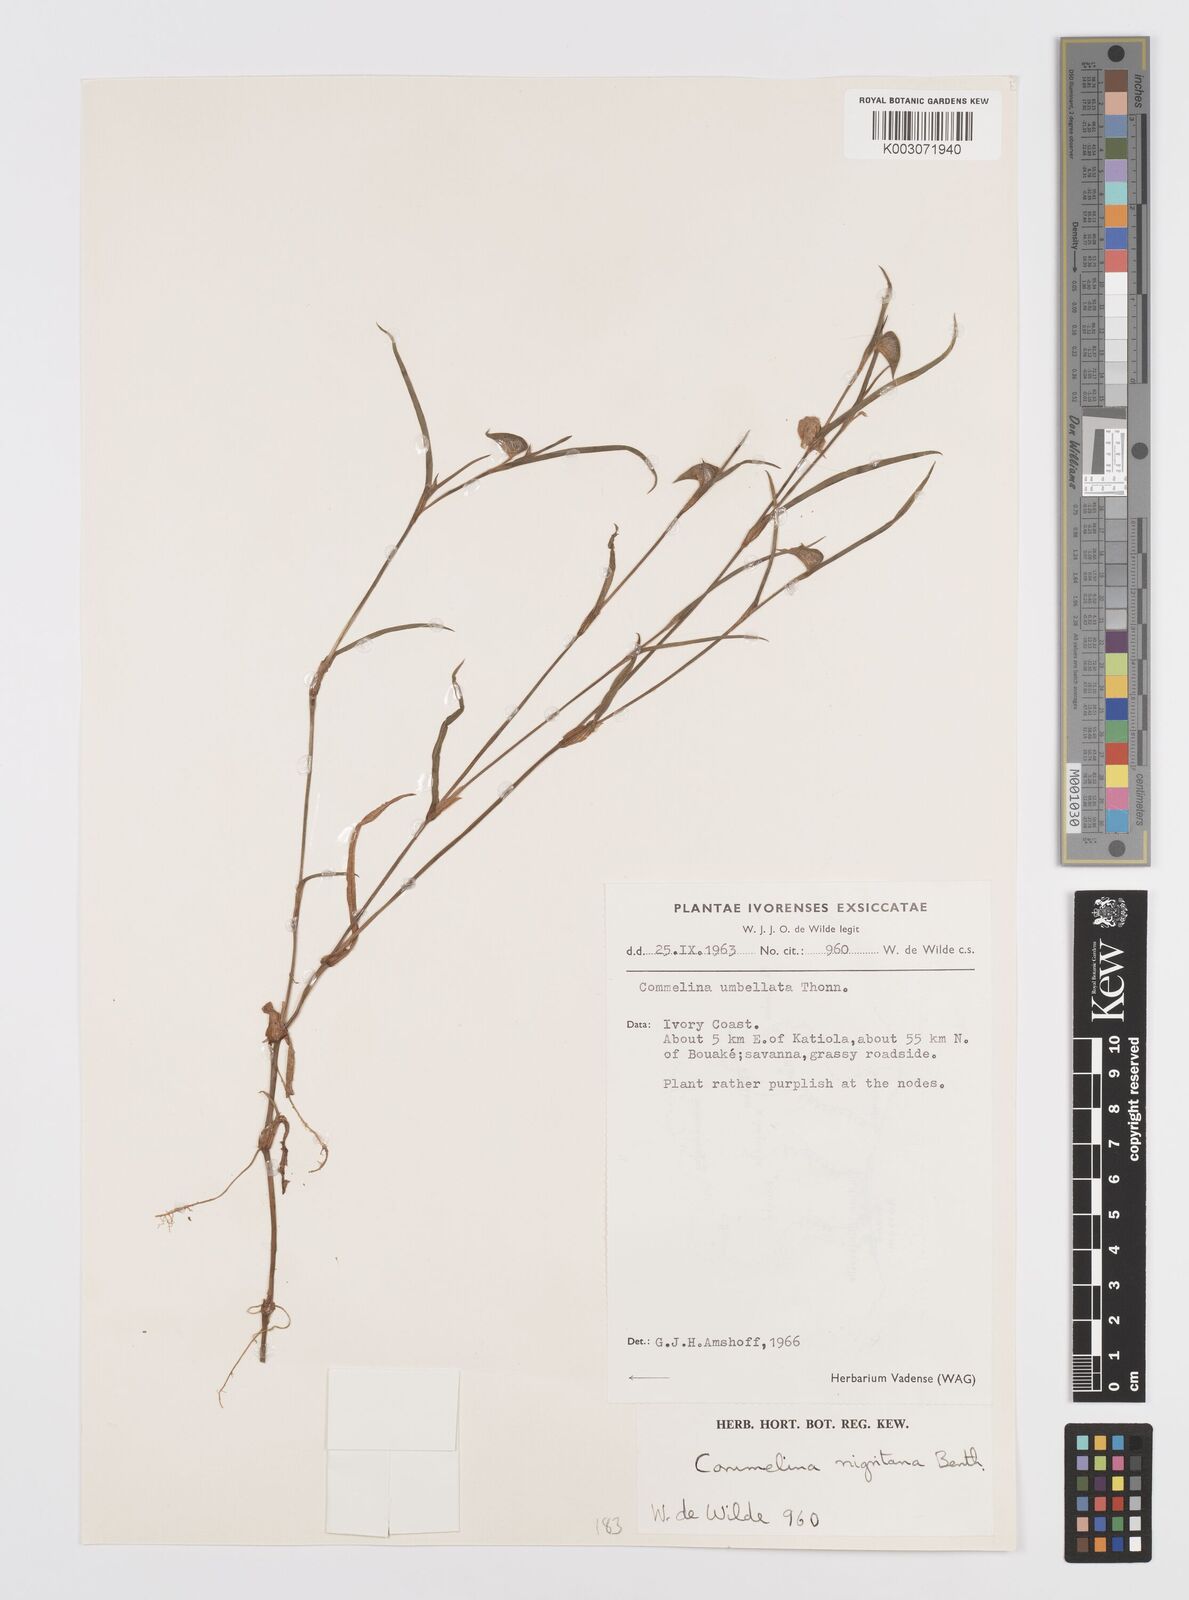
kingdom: Plantae
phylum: Tracheophyta
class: Liliopsida
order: Commelinales
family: Commelinaceae
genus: Commelina
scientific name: Commelina
